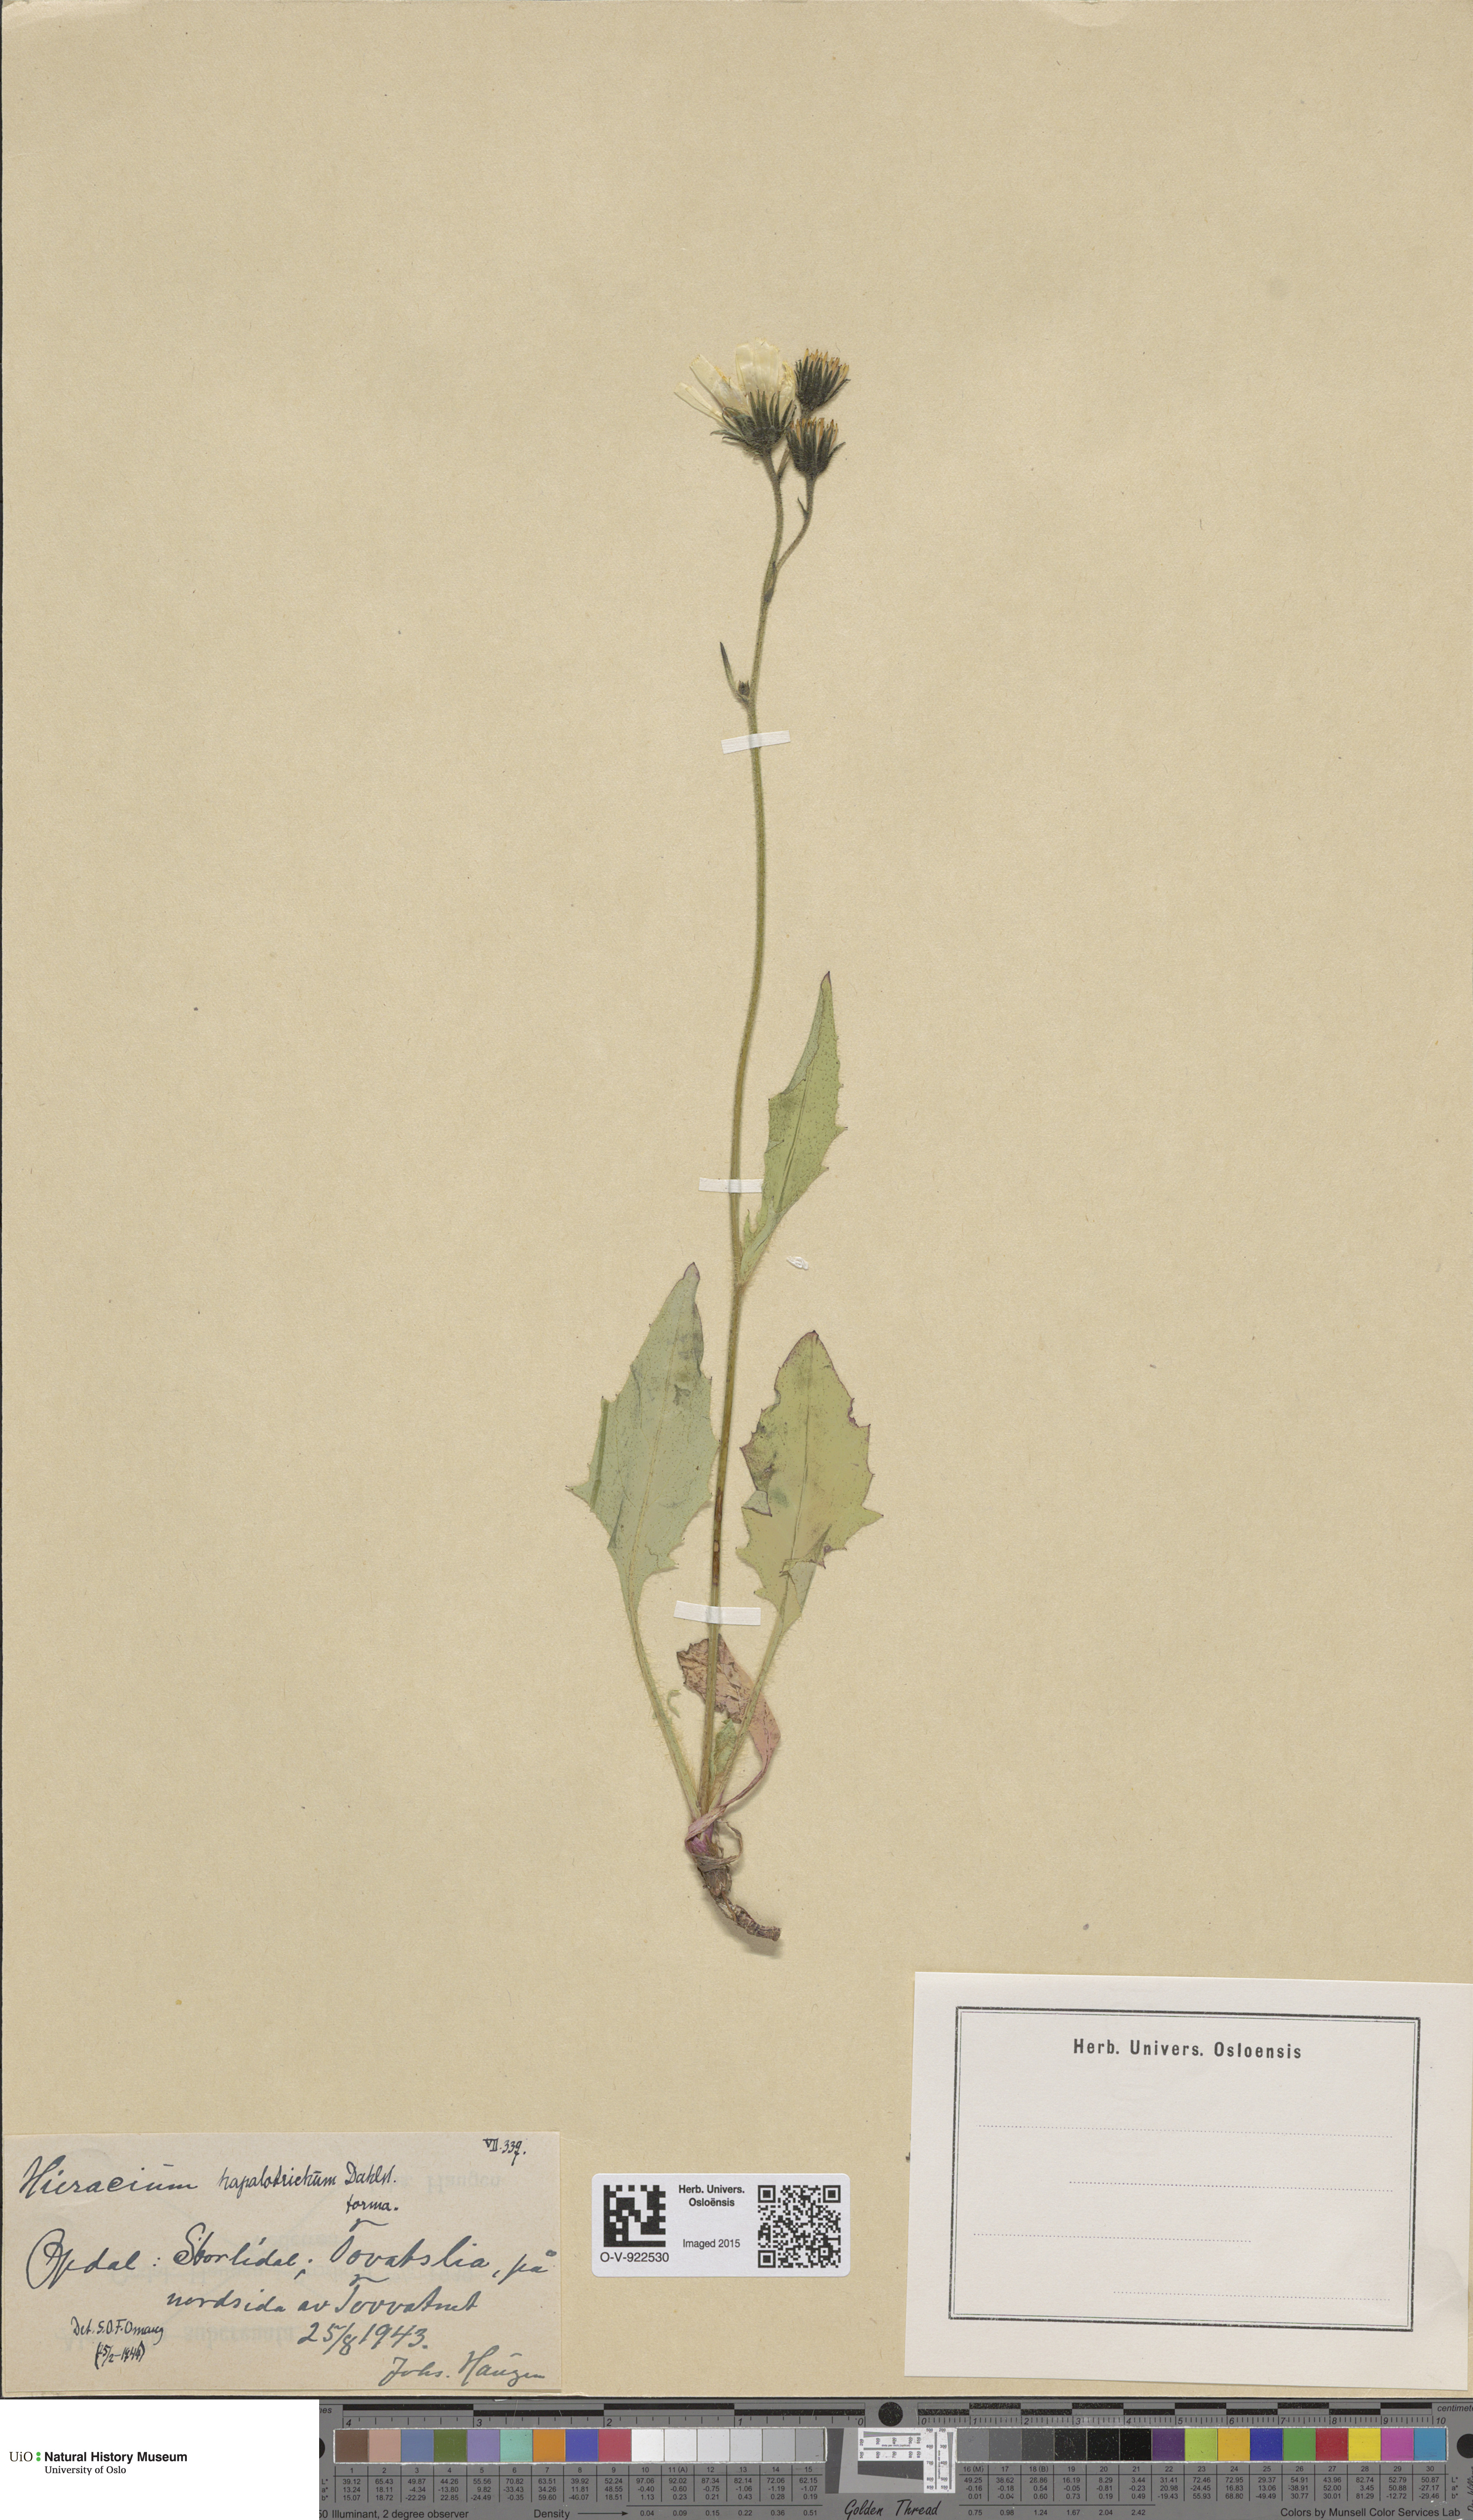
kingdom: Plantae
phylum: Tracheophyta
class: Magnoliopsida
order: Asterales
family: Asteraceae
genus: Hieracium
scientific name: Hieracium
